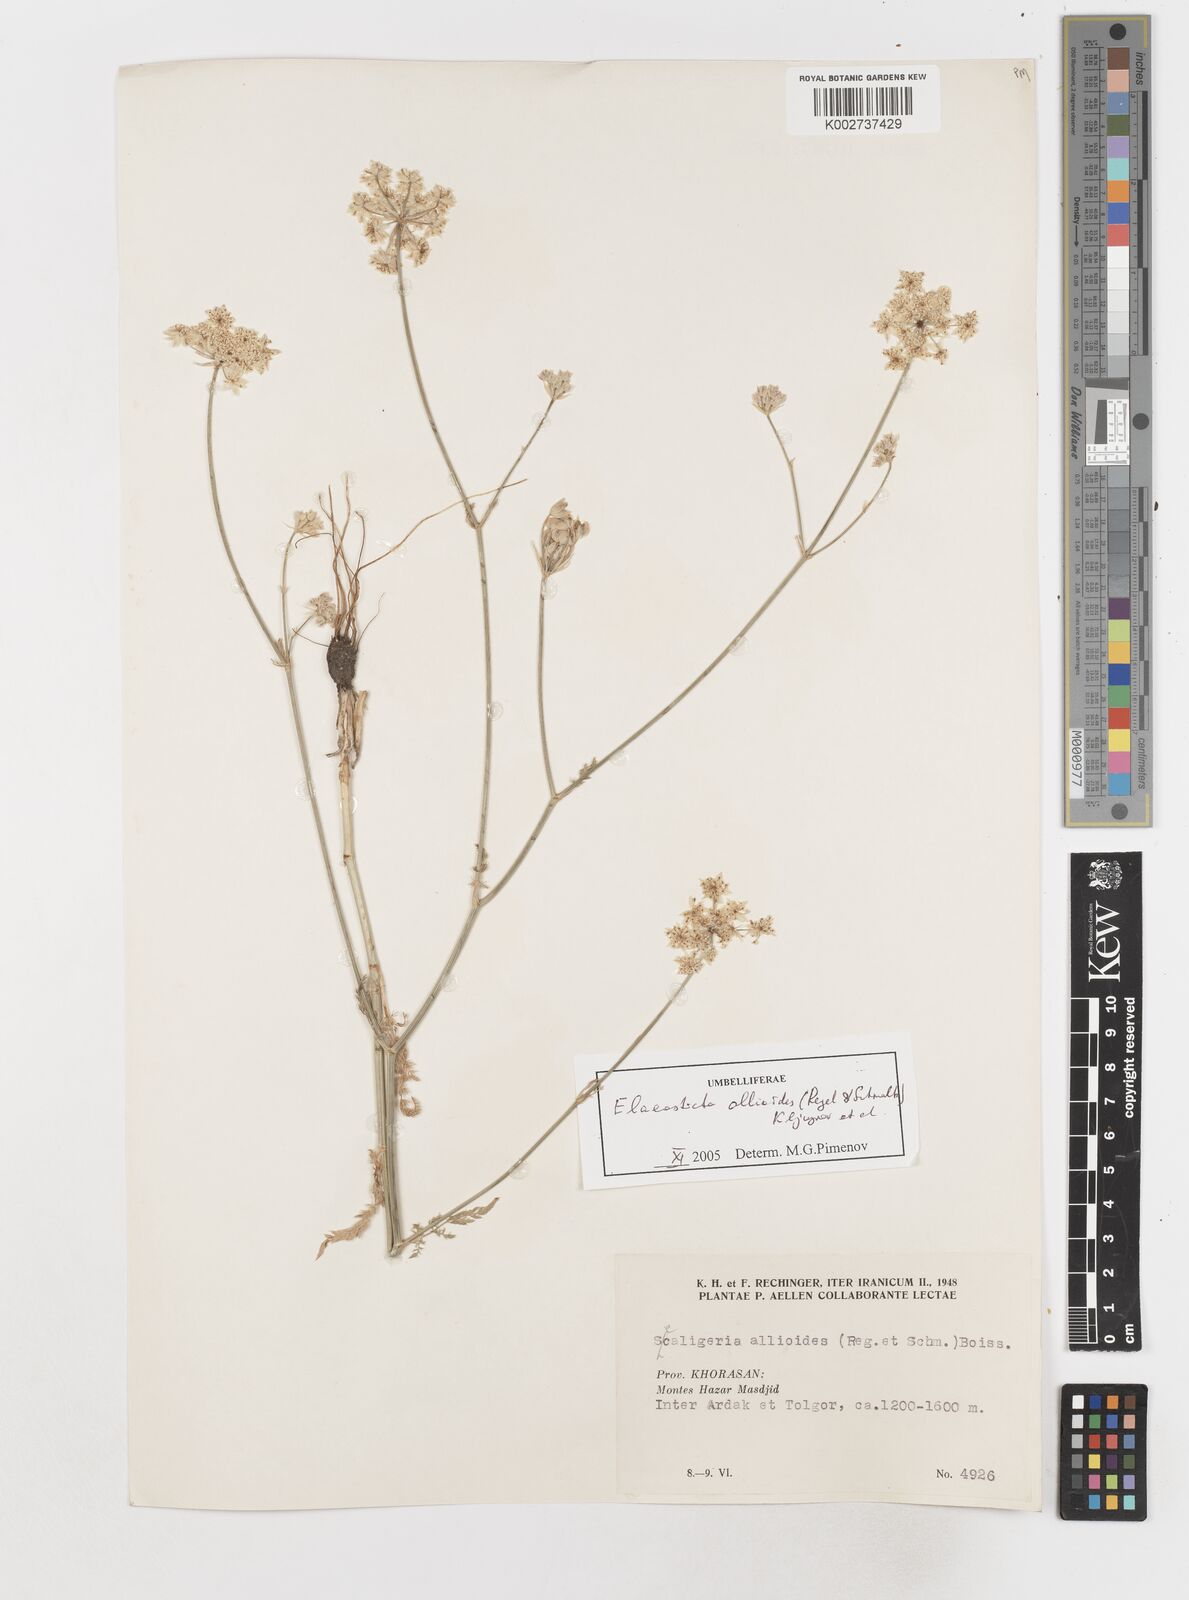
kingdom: Plantae
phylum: Tracheophyta
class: Magnoliopsida
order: Apiales
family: Apiaceae
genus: Scaligeria
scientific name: Scaligeria allioides
